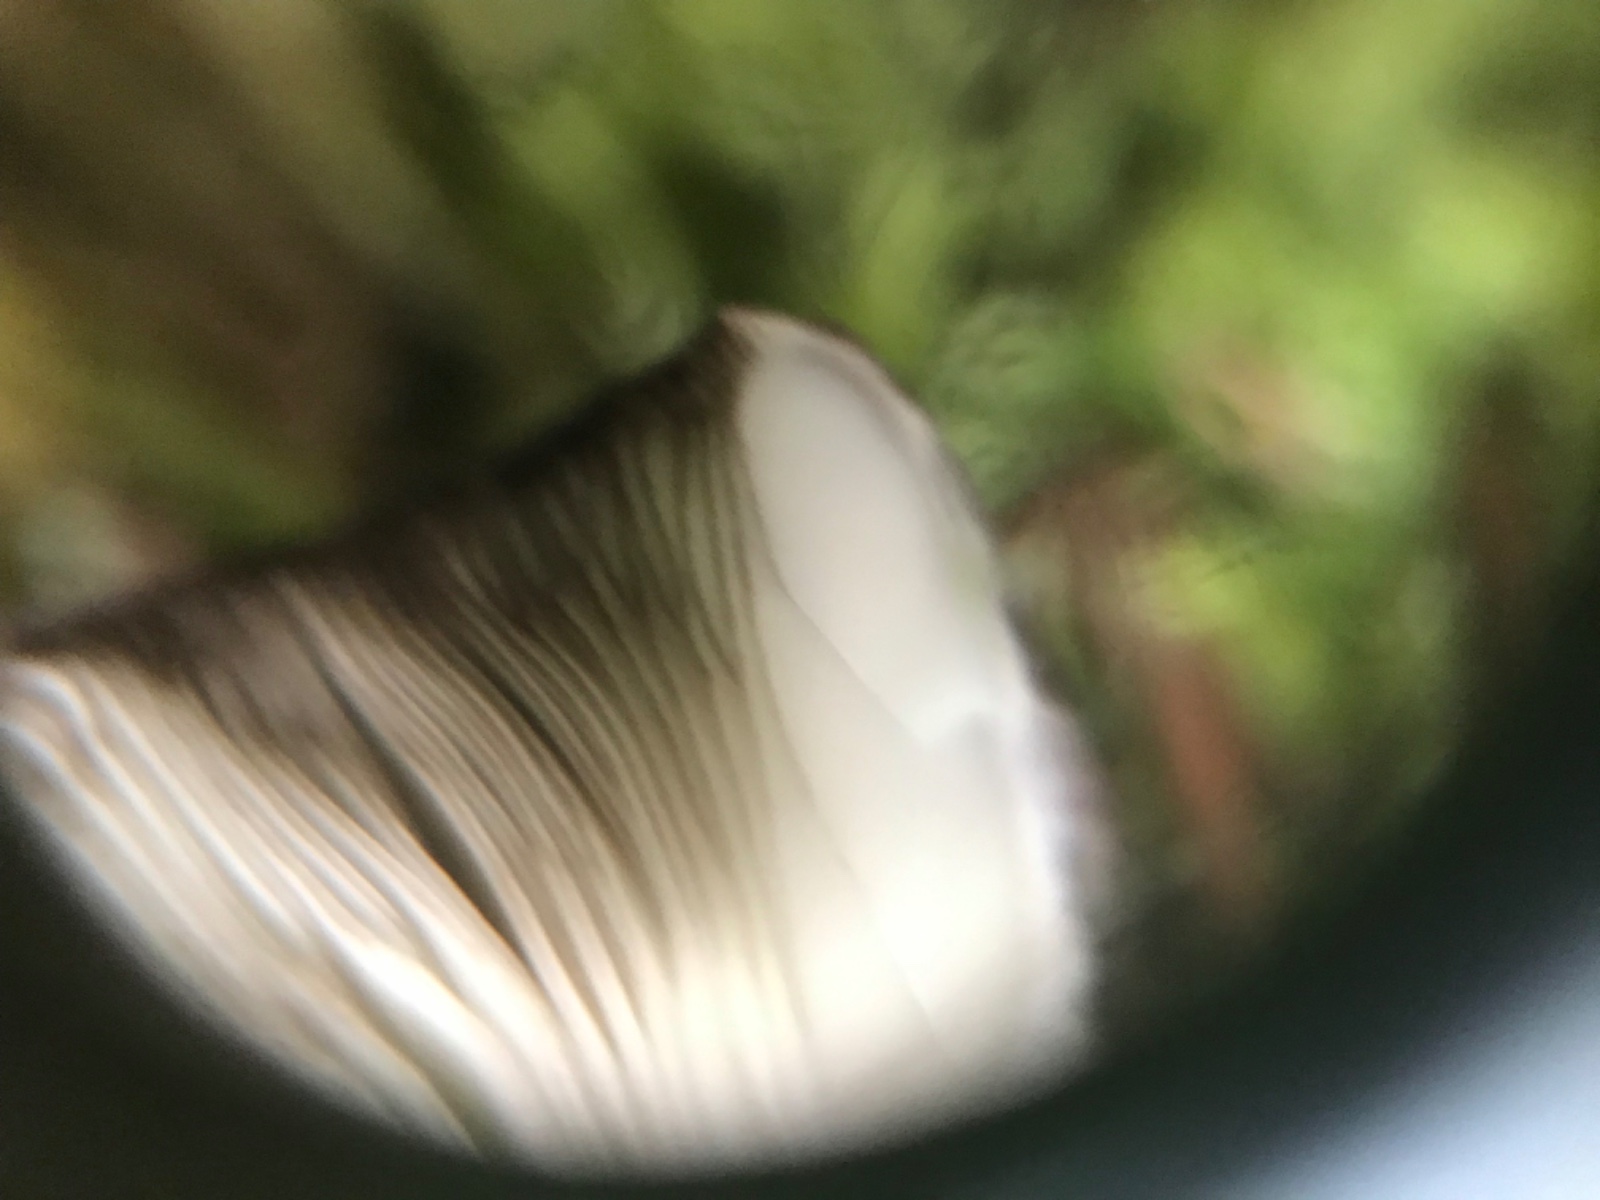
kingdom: Fungi
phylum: Basidiomycota
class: Agaricomycetes
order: Agaricales
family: Pluteaceae
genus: Pluteus
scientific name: Pluteus atromarginatus
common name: sortrandet skærmhat
